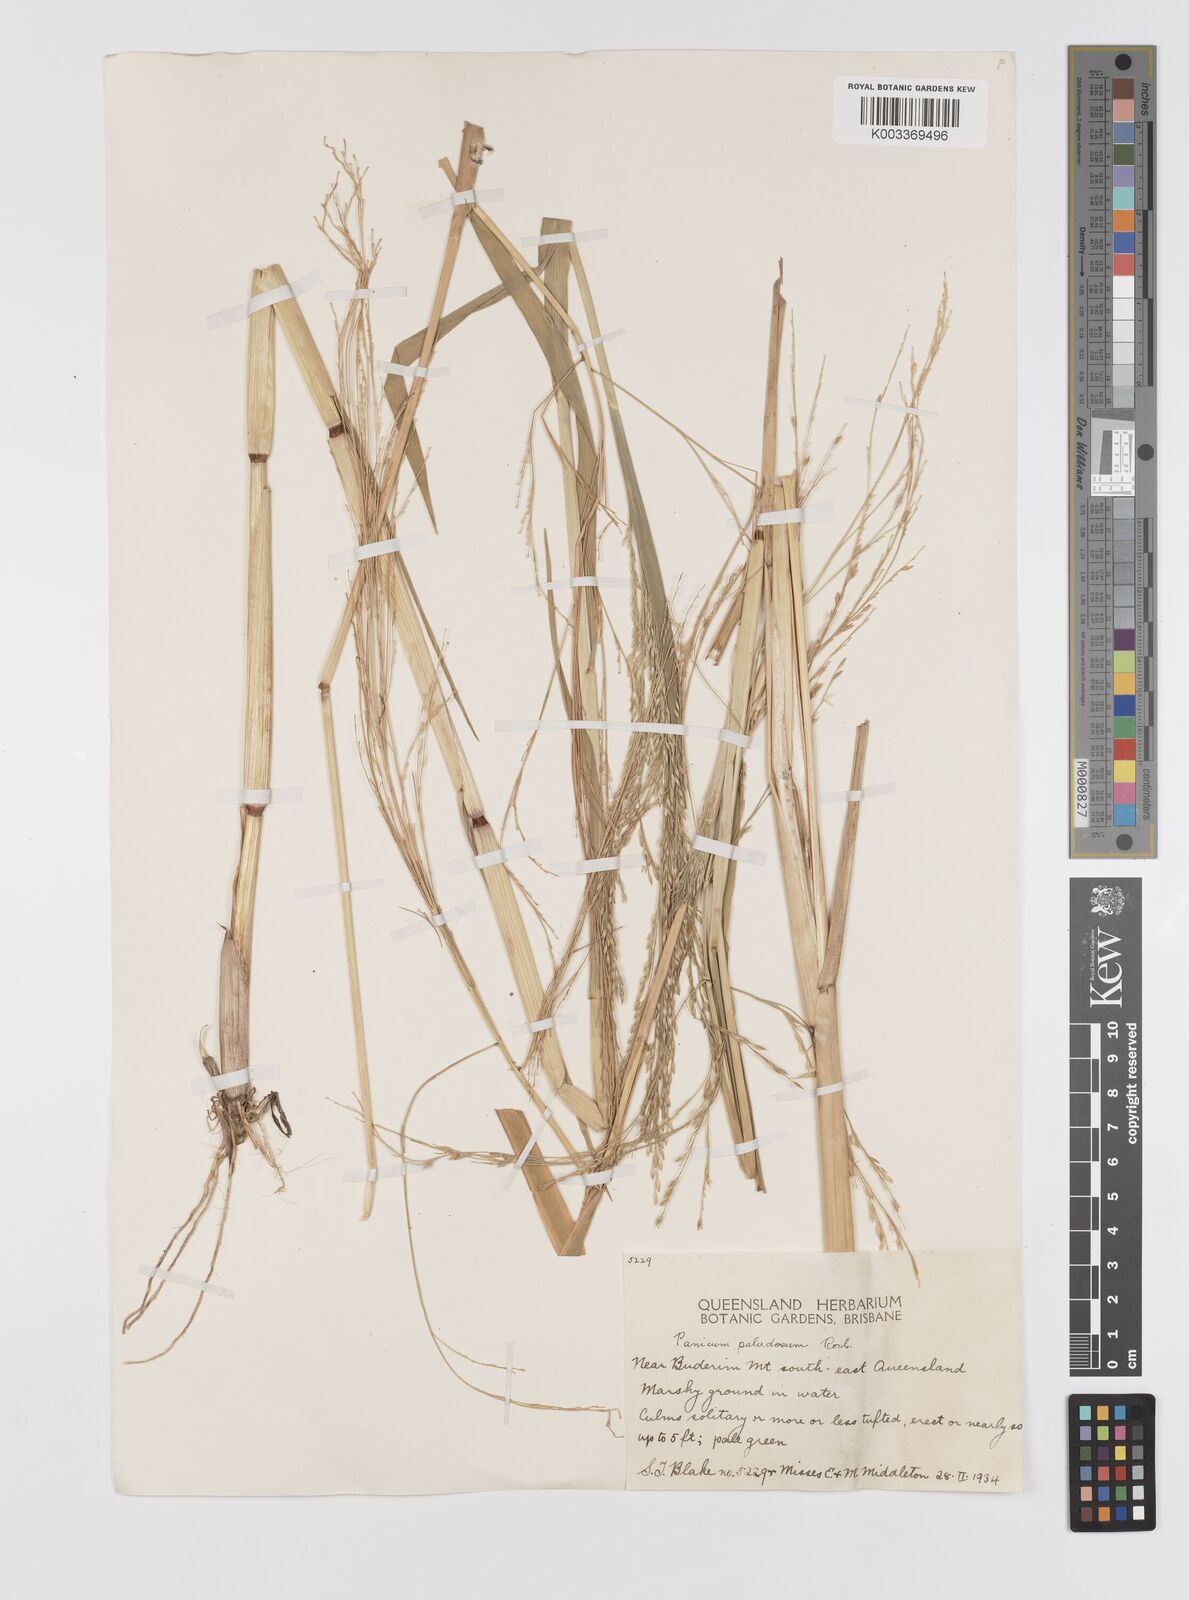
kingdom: Plantae
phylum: Tracheophyta
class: Liliopsida
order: Poales
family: Poaceae
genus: Louisiella
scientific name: Louisiella paludosa
